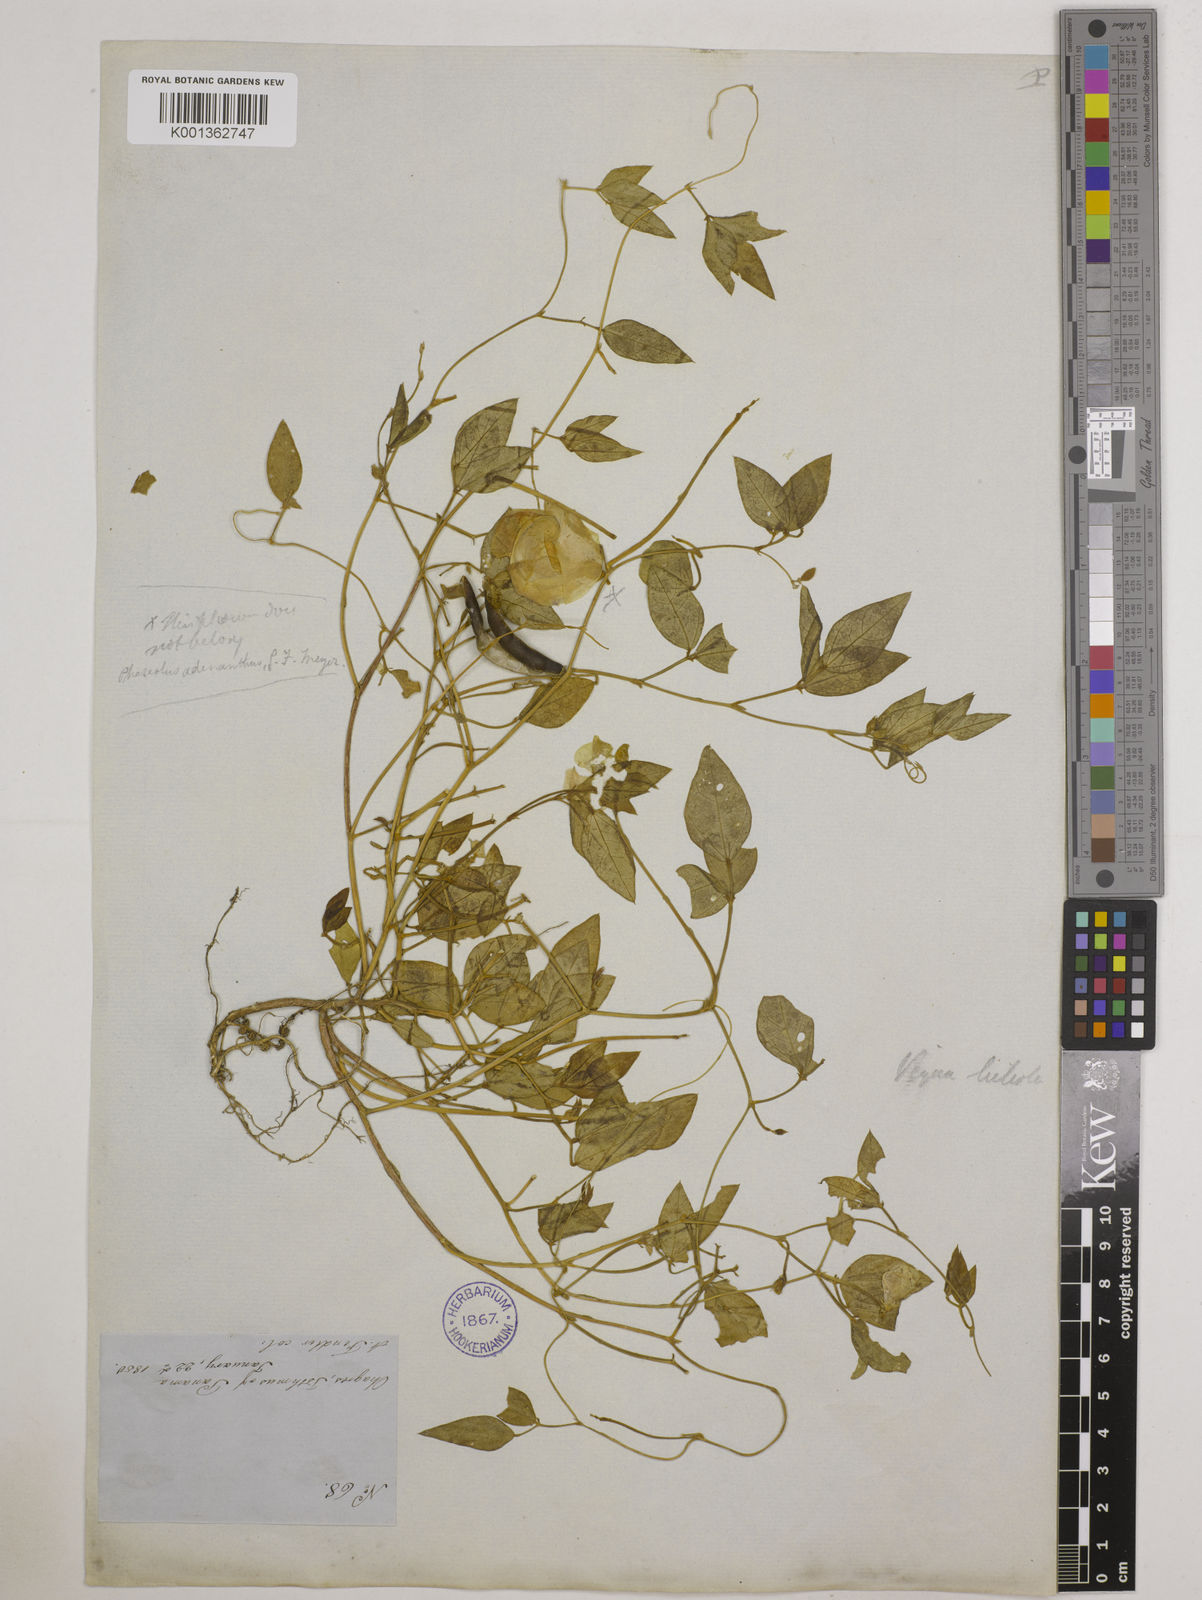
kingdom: Plantae
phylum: Tracheophyta
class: Magnoliopsida
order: Fabales
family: Fabaceae
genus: Vigna
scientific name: Vigna luteola
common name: Hairypod cowpea
